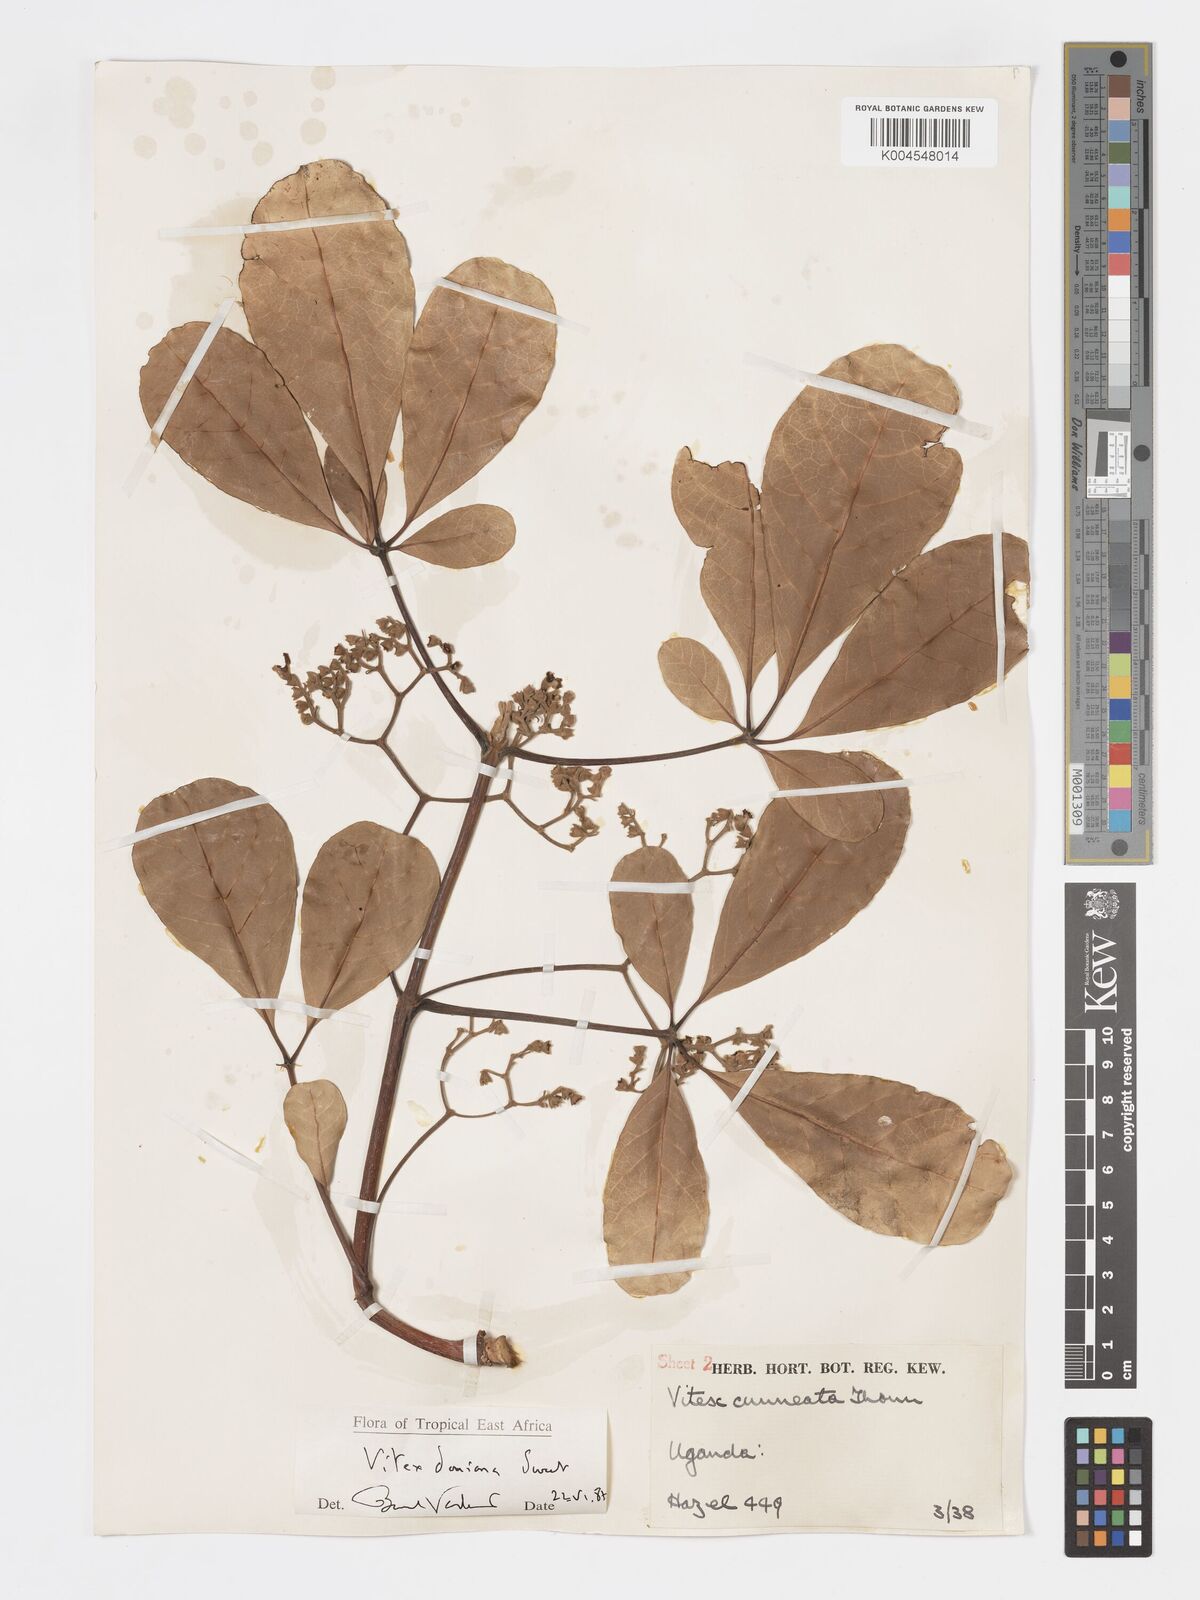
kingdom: Plantae
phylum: Tracheophyta
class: Magnoliopsida
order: Lamiales
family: Lamiaceae
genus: Vitex
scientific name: Vitex doniana
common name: Black plum
